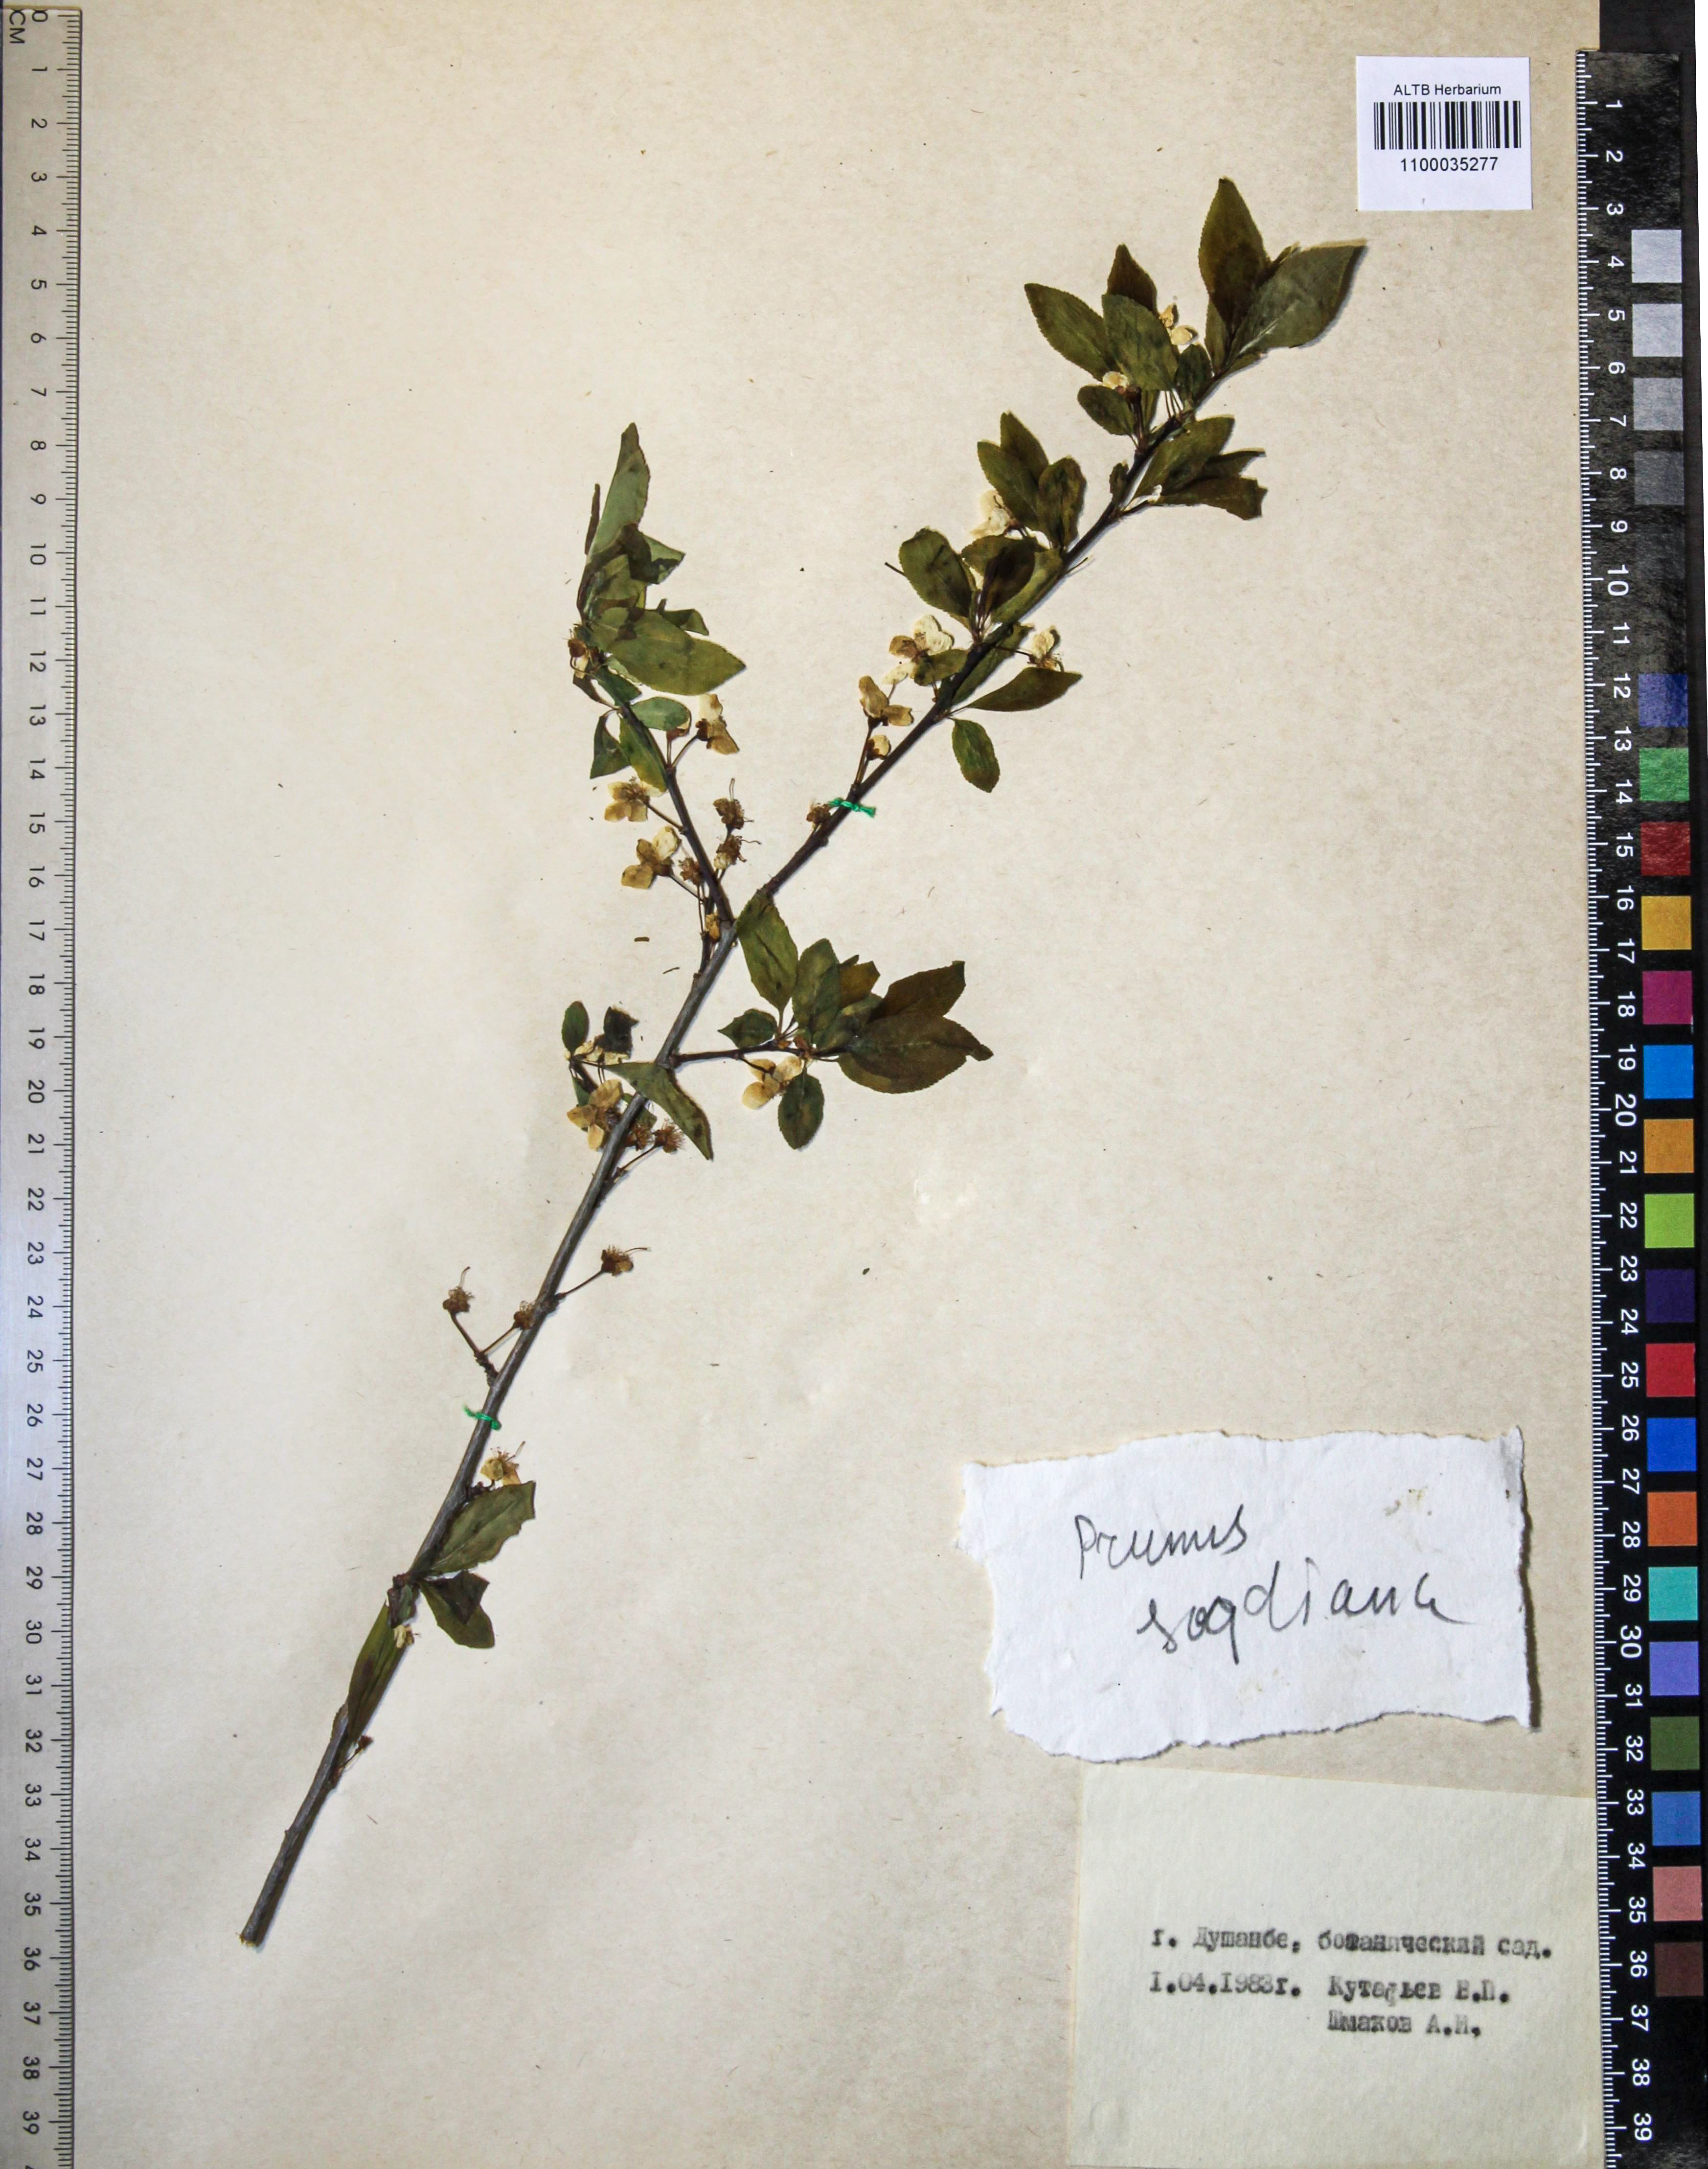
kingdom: Plantae
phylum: Tracheophyta
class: Magnoliopsida
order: Rosales
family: Rosaceae
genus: Prunus
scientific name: Prunus cerasifera
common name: Cherry plum
